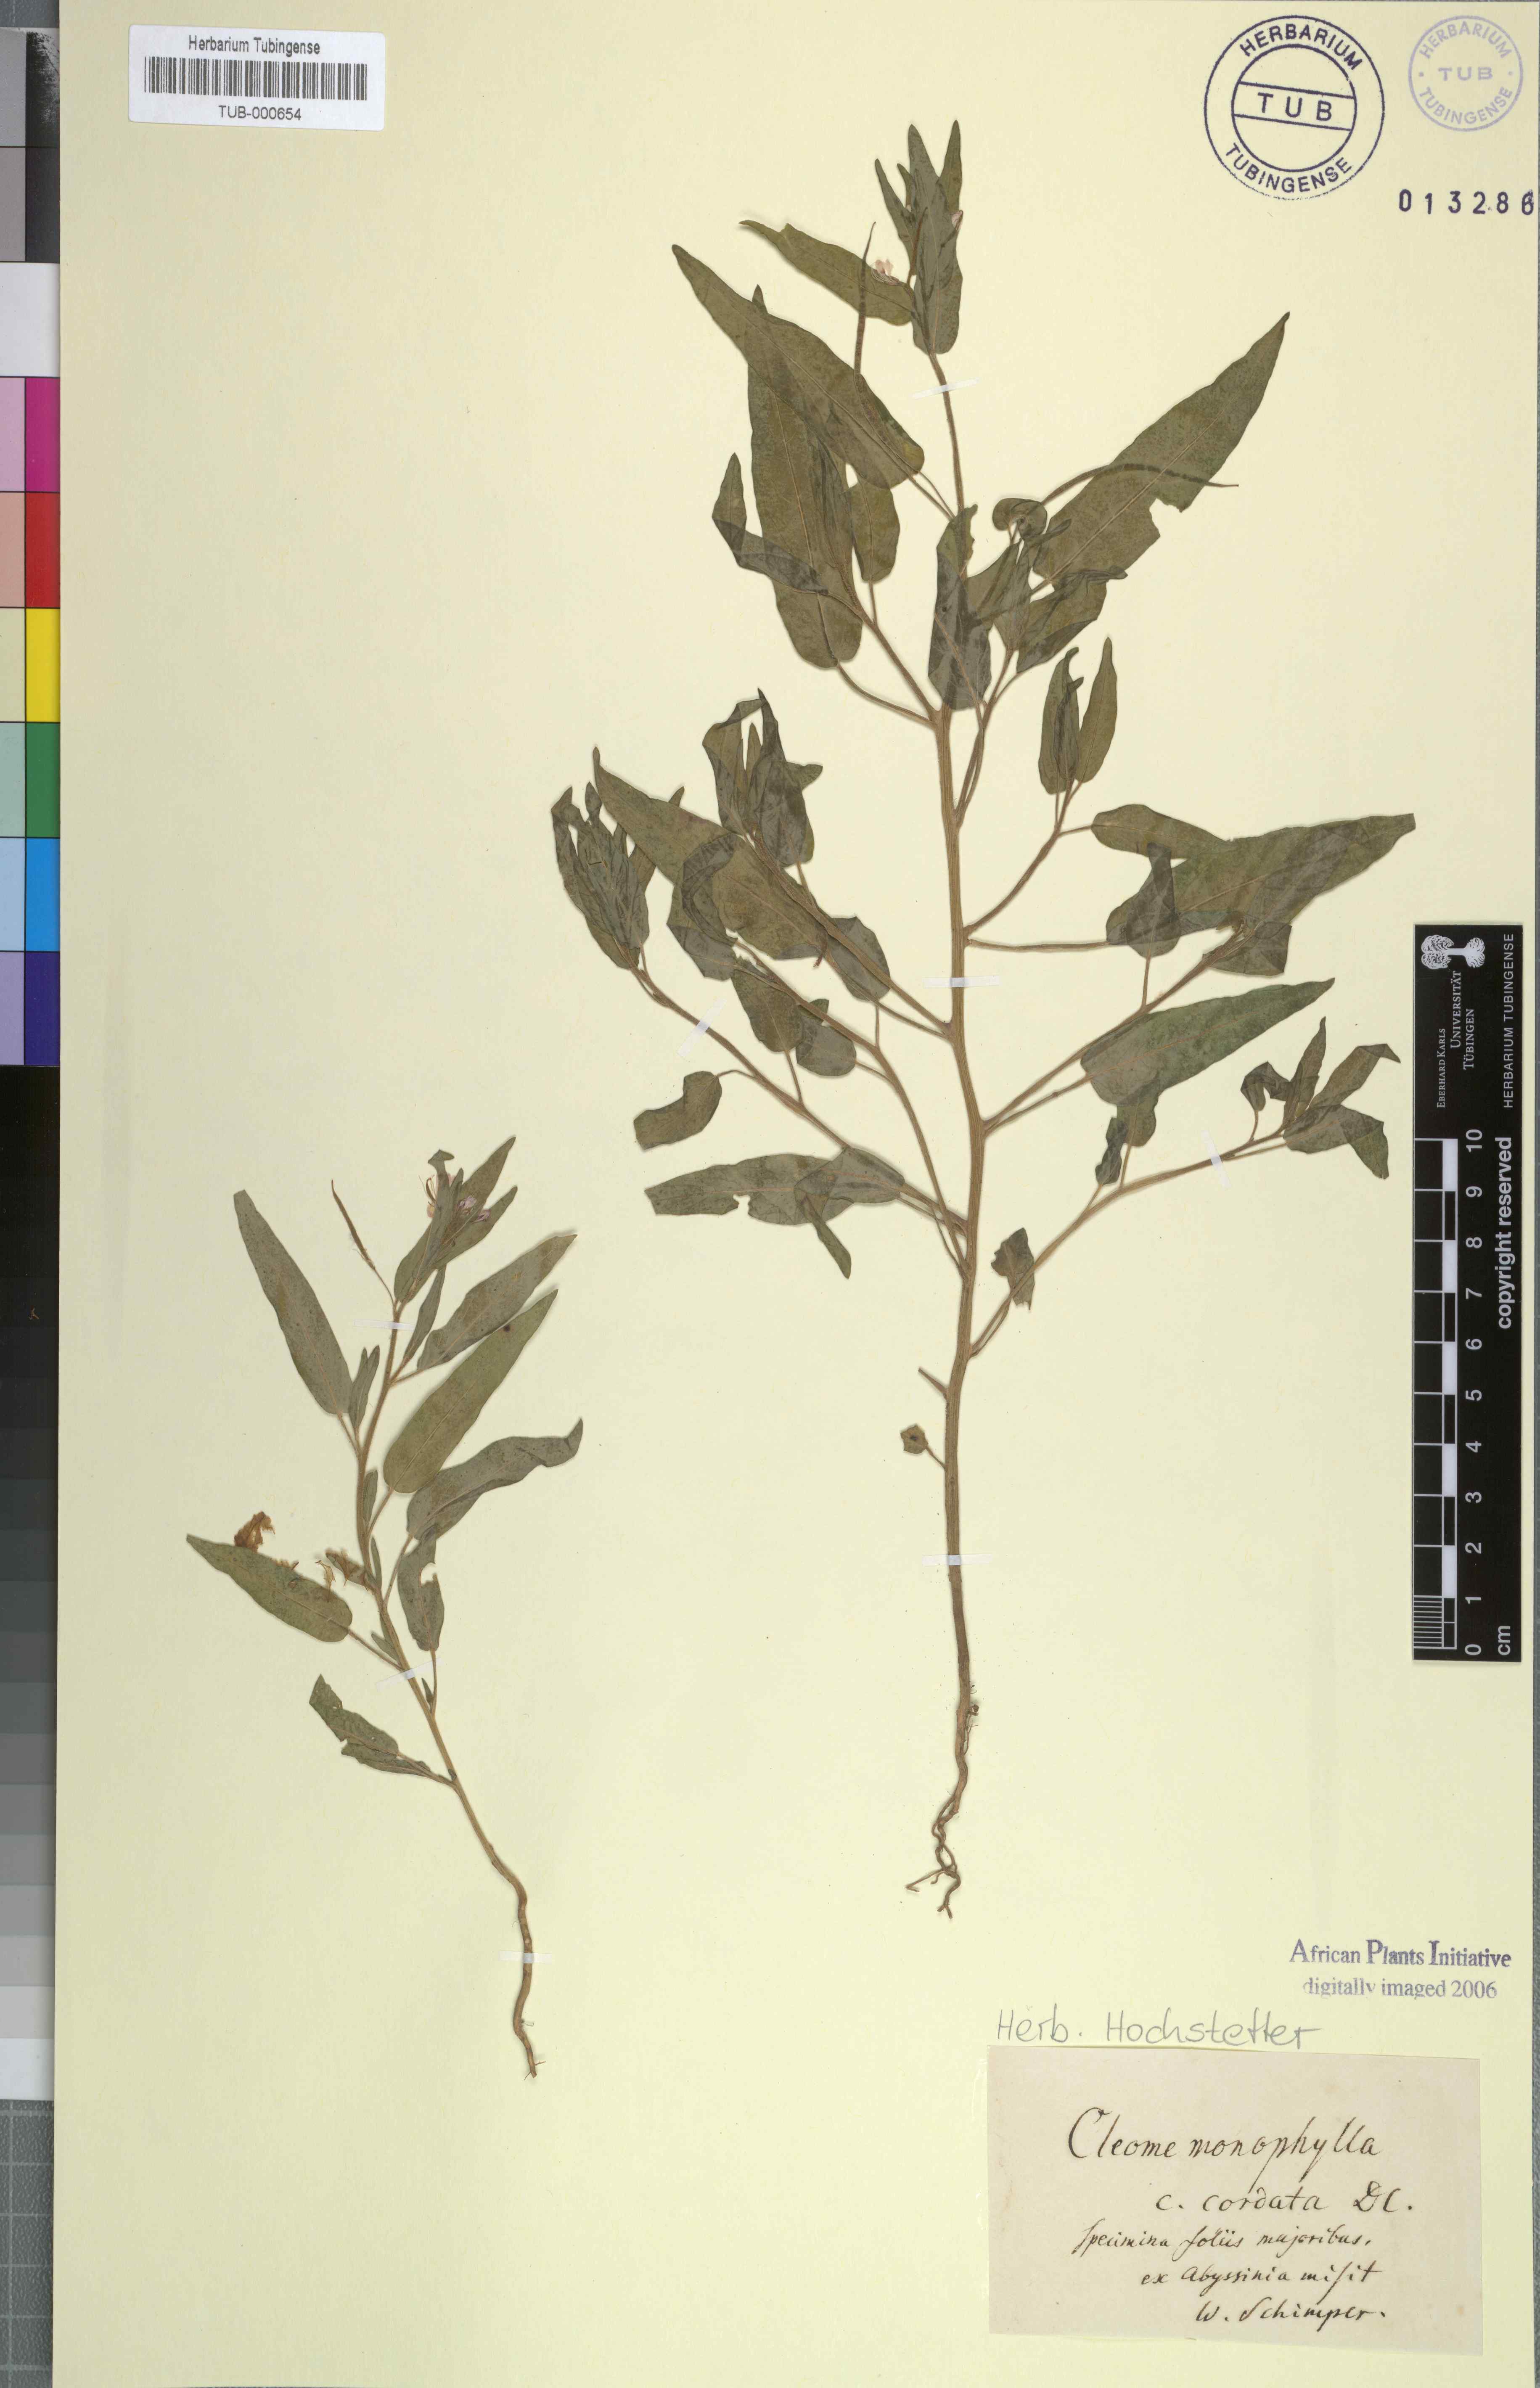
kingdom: Plantae
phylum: Tracheophyta
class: Magnoliopsida
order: Brassicales
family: Cleomaceae
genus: Sieruela
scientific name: Sieruela monophylla
